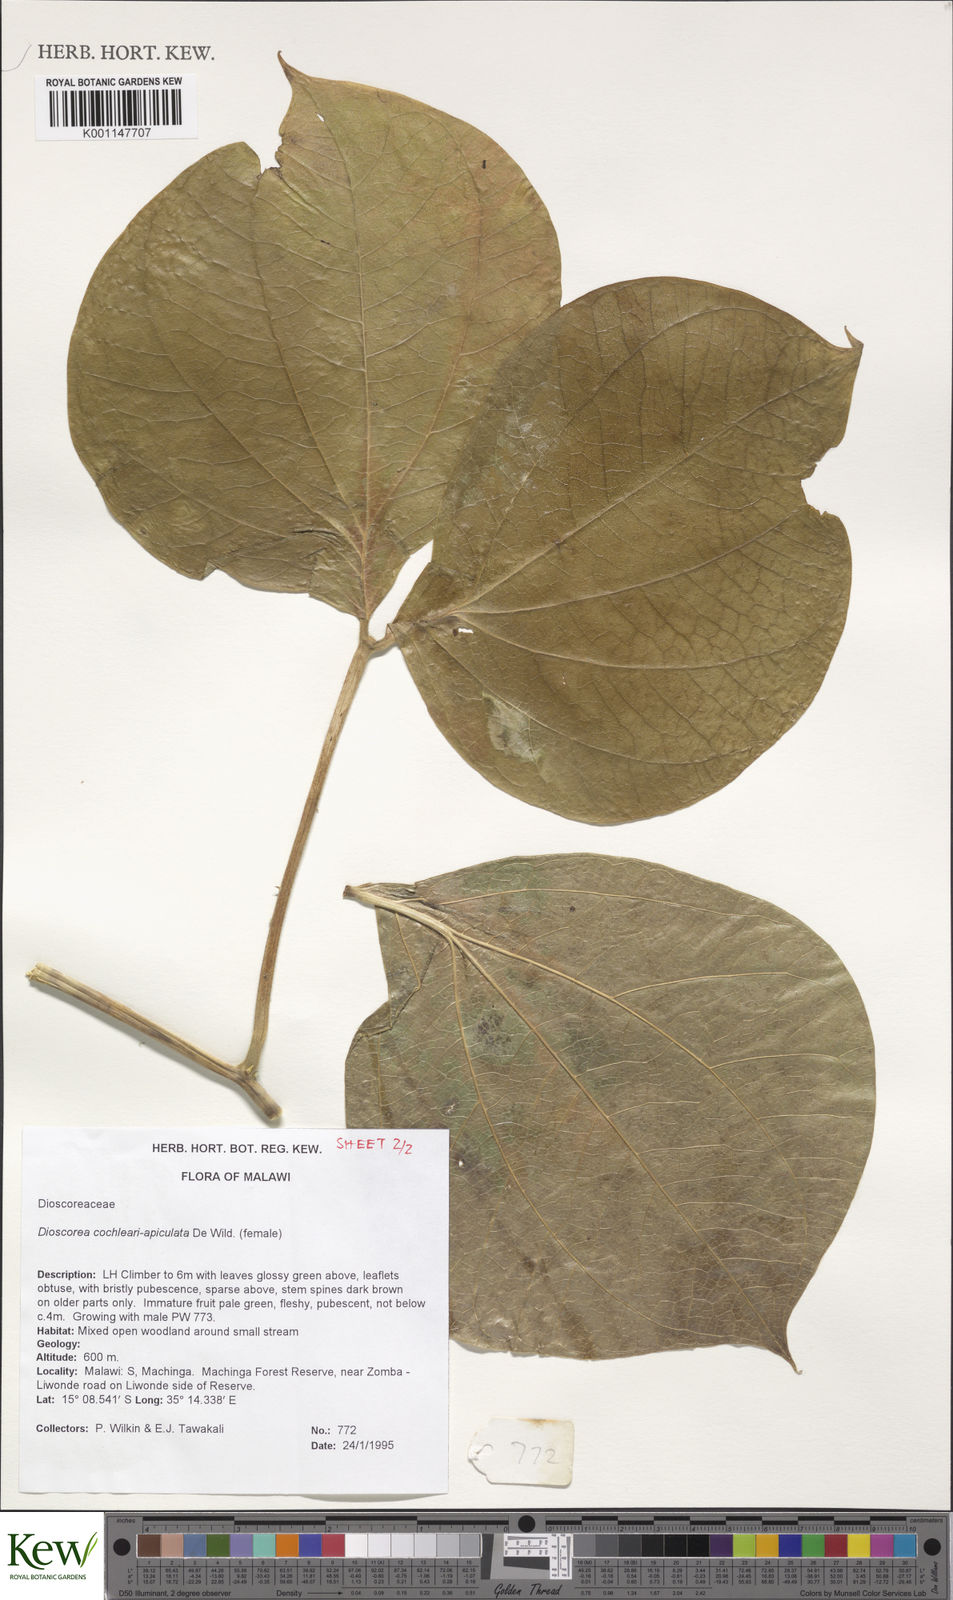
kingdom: Plantae
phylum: Tracheophyta
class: Liliopsida
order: Dioscoreales
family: Dioscoreaceae
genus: Dioscorea
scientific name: Dioscorea cochleariapiculata
